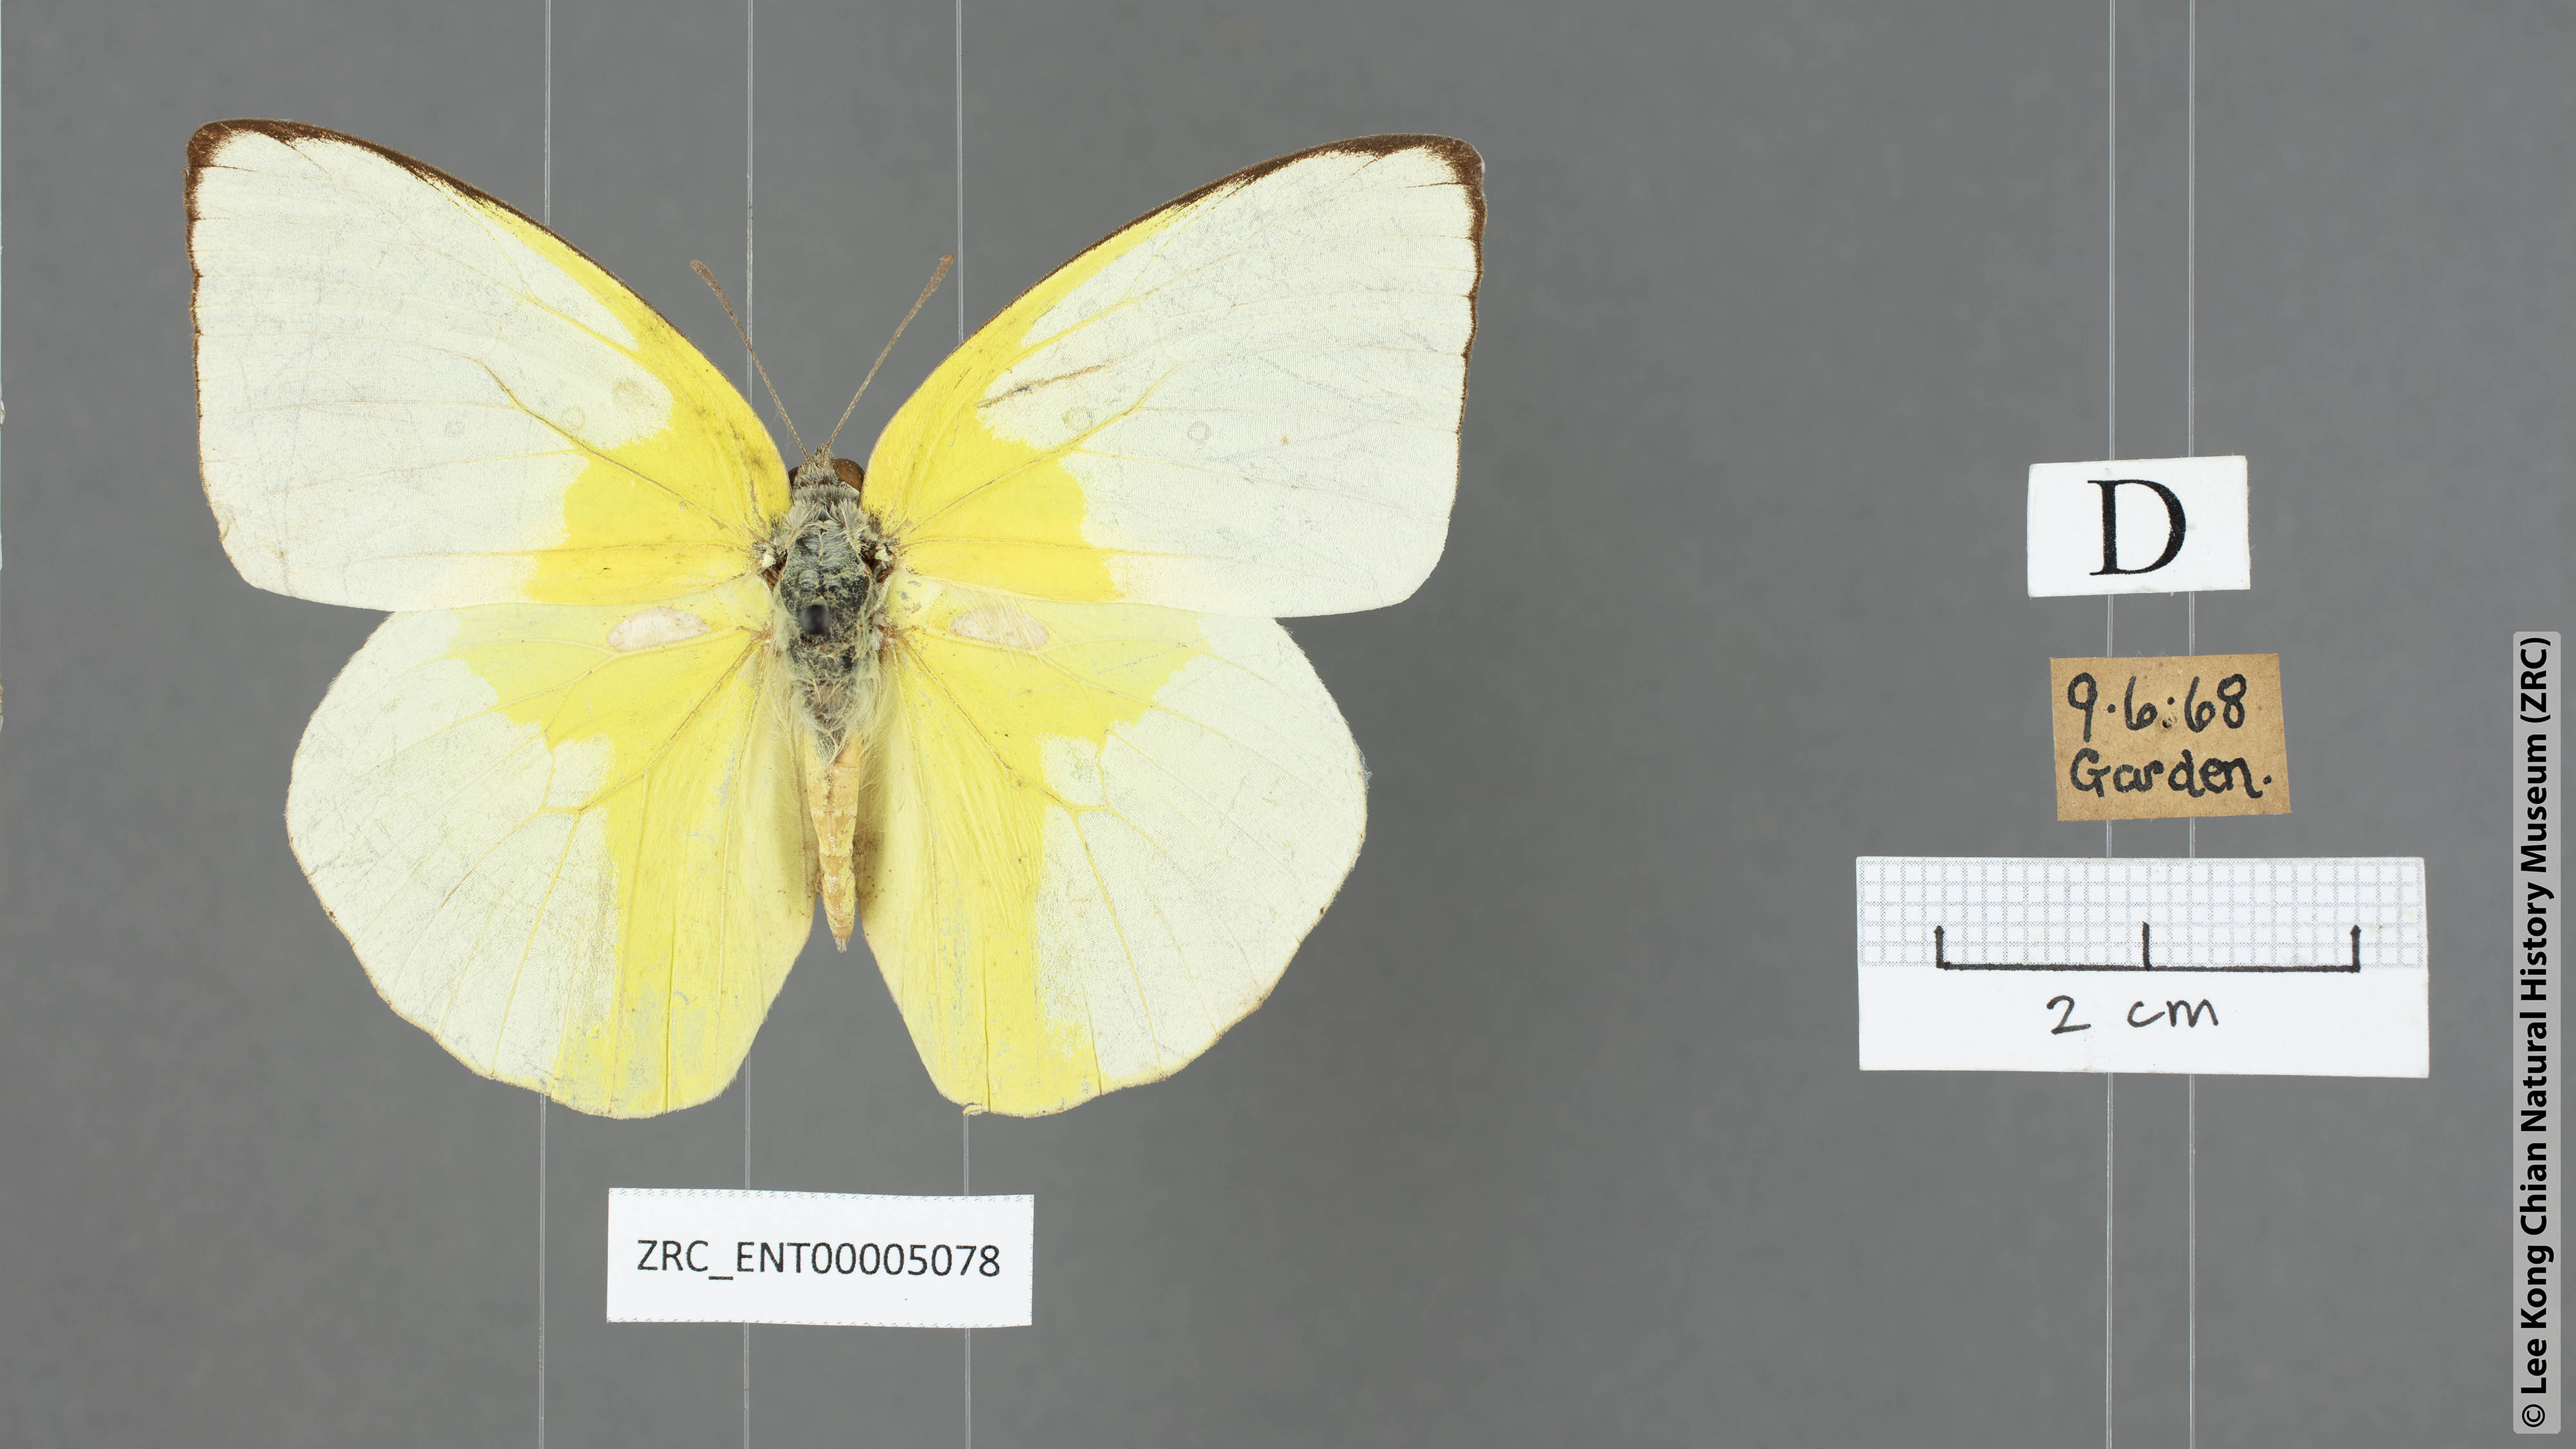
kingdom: Animalia
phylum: Arthropoda
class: Insecta
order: Lepidoptera
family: Pieridae
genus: Catopsilia
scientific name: Catopsilia pomona
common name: Common emigrant
